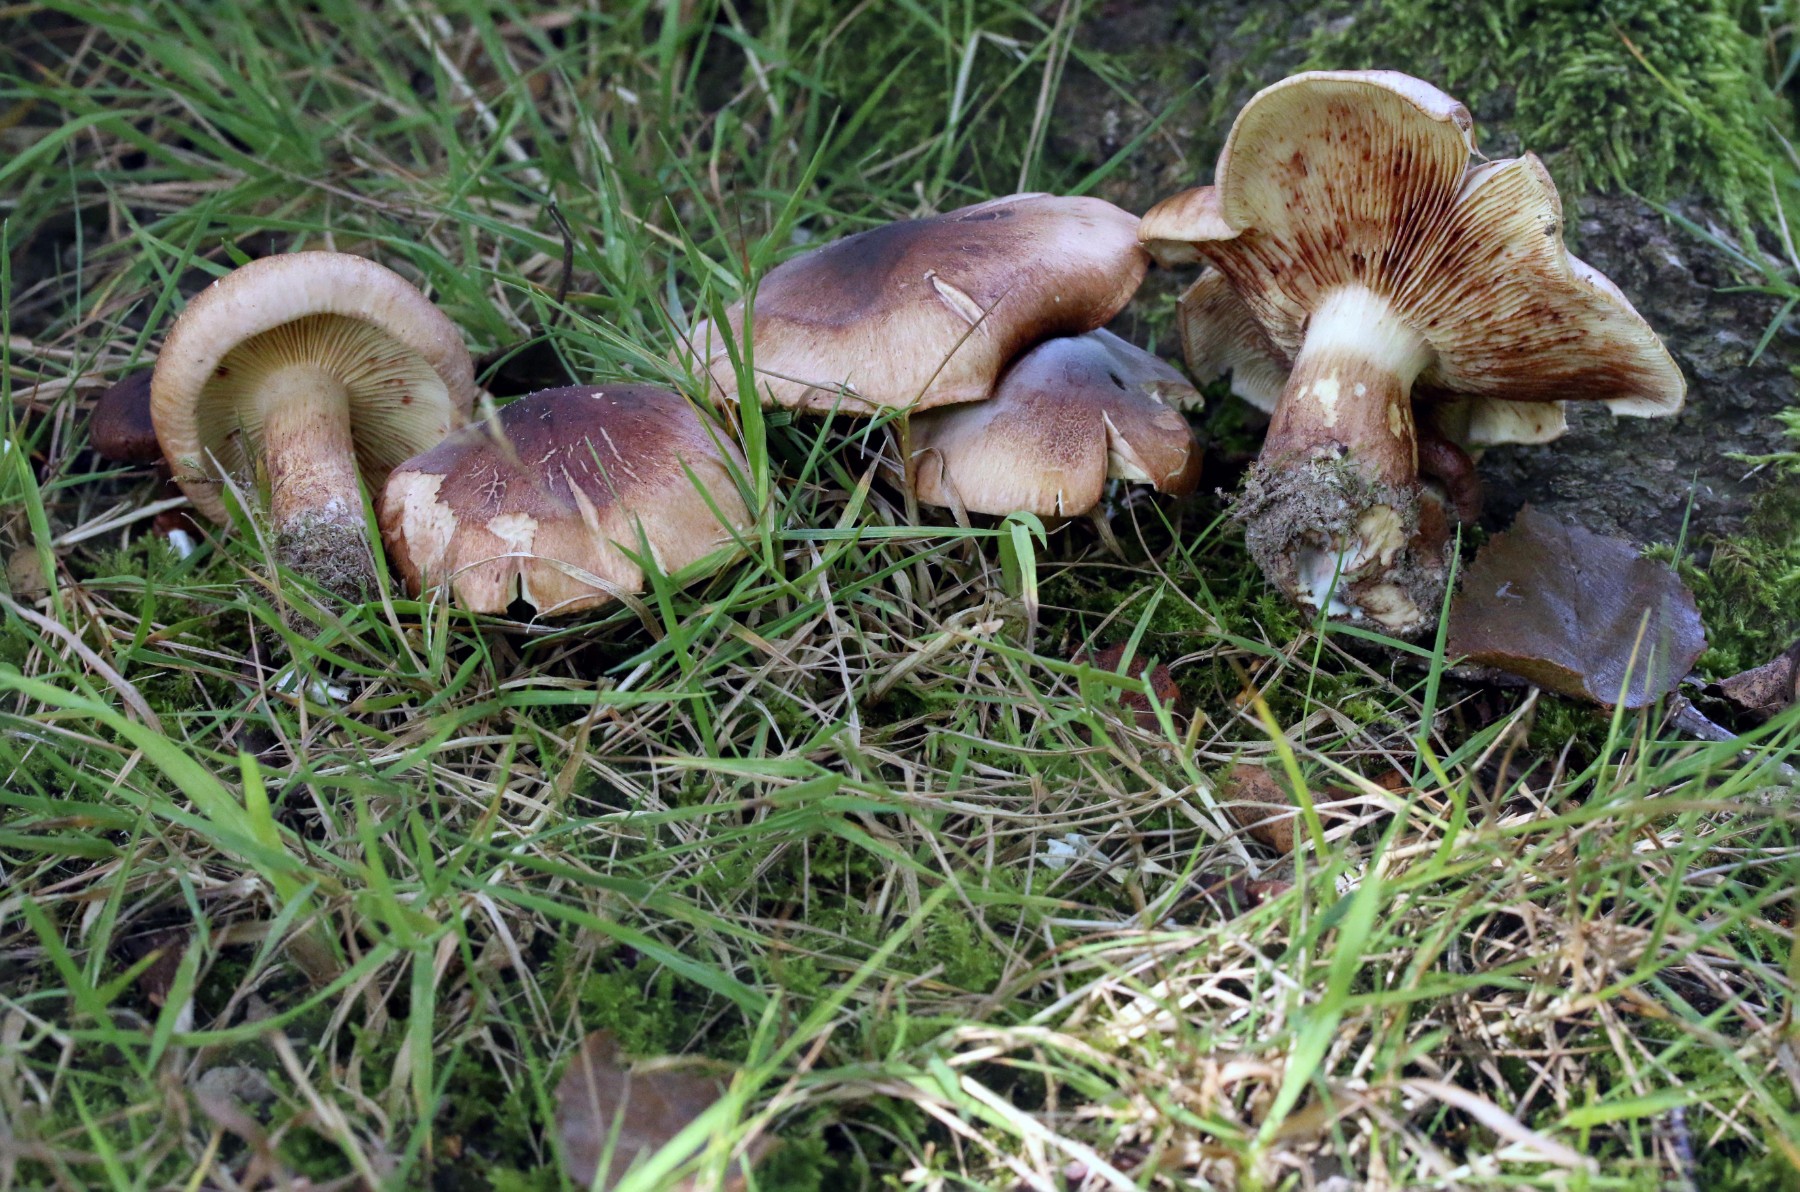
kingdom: Fungi
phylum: Basidiomycota
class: Agaricomycetes
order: Agaricales
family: Tricholomataceae
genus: Tricholoma
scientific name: Tricholoma fulvum
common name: birke-ridderhat
